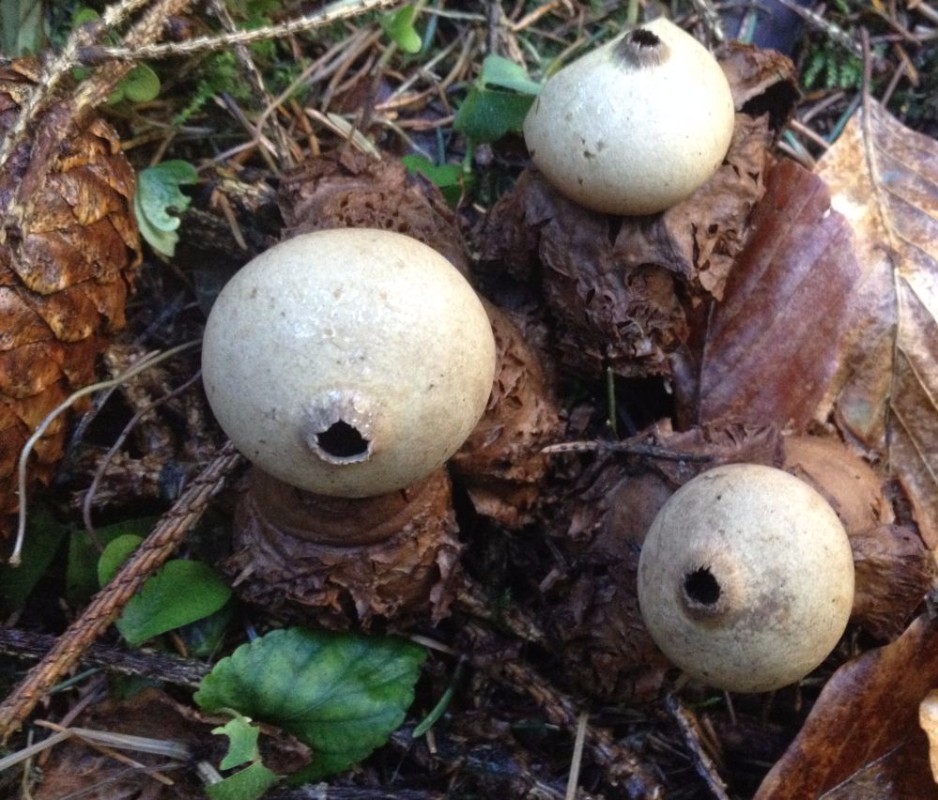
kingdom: Fungi
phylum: Basidiomycota
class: Agaricomycetes
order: Geastrales
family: Geastraceae
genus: Geastrum
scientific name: Geastrum michelianum
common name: kødet stjernebold
